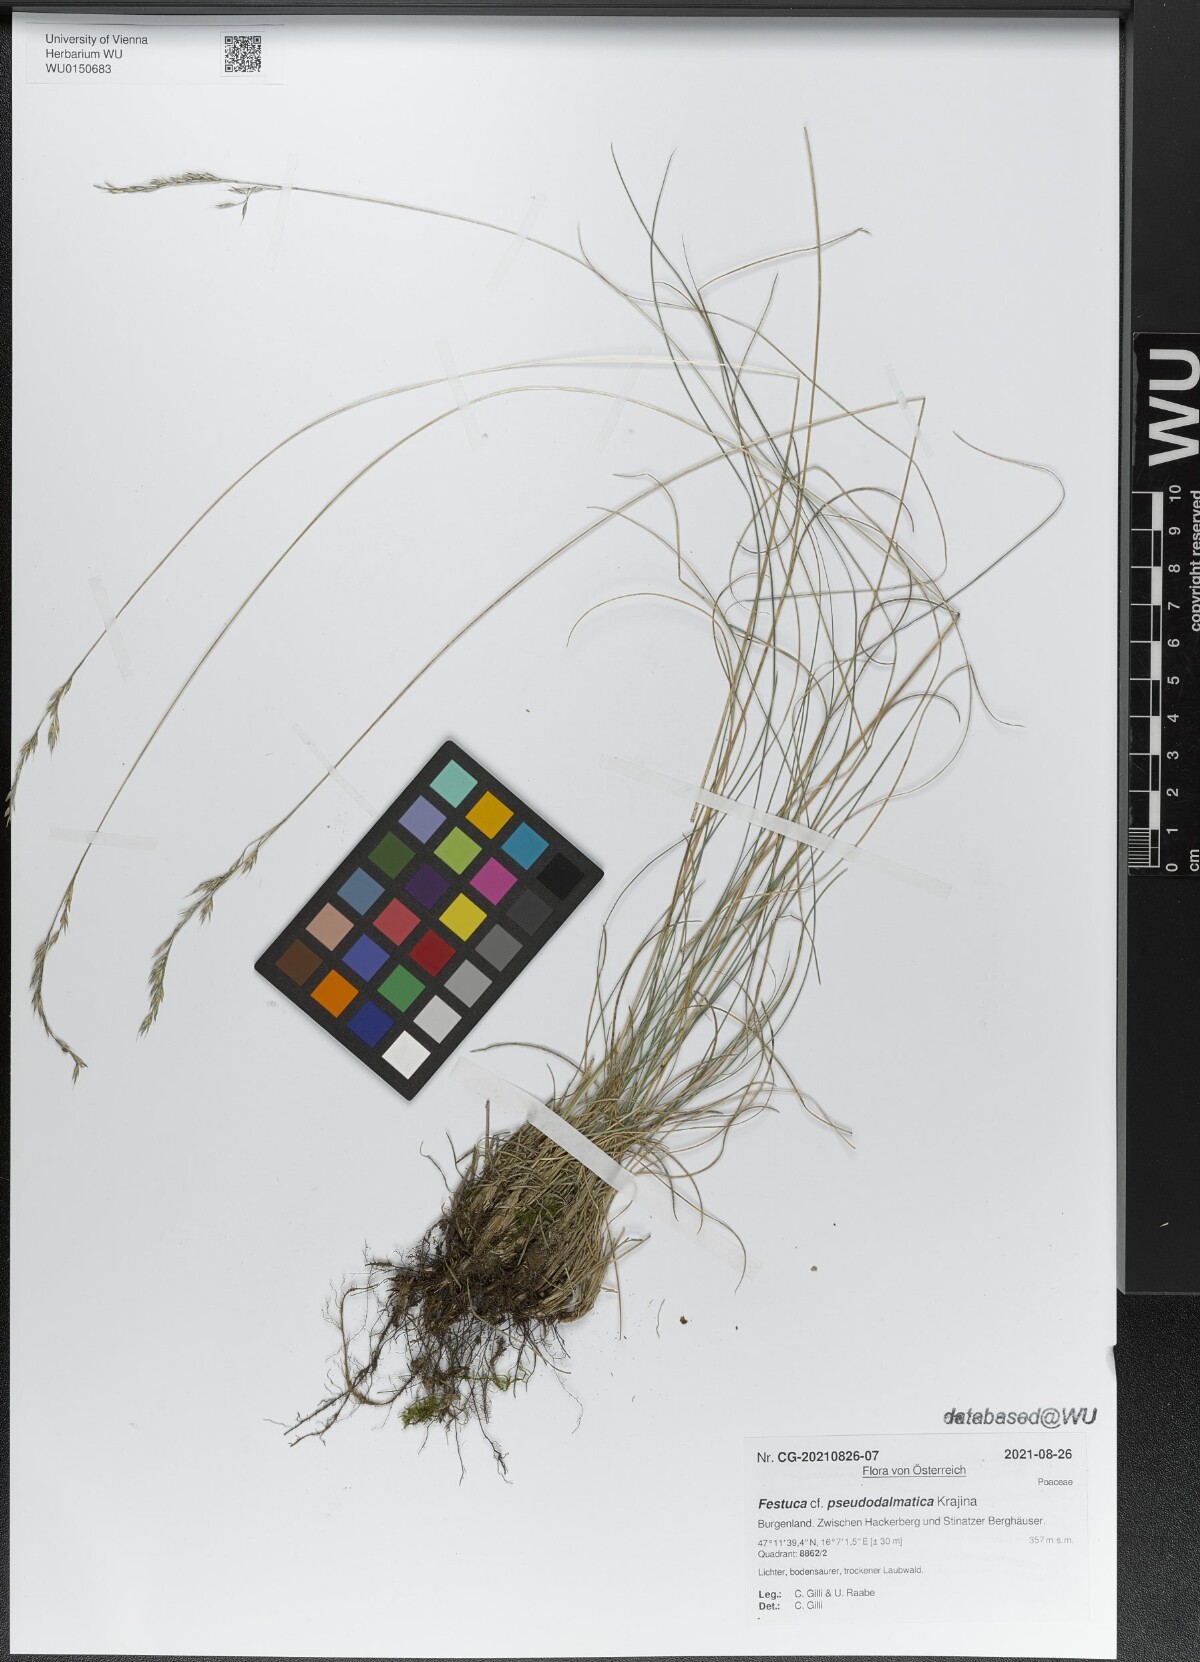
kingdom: Plantae
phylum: Tracheophyta
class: Liliopsida
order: Poales
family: Poaceae
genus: Festuca
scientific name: Festuca pseudodalmatica
